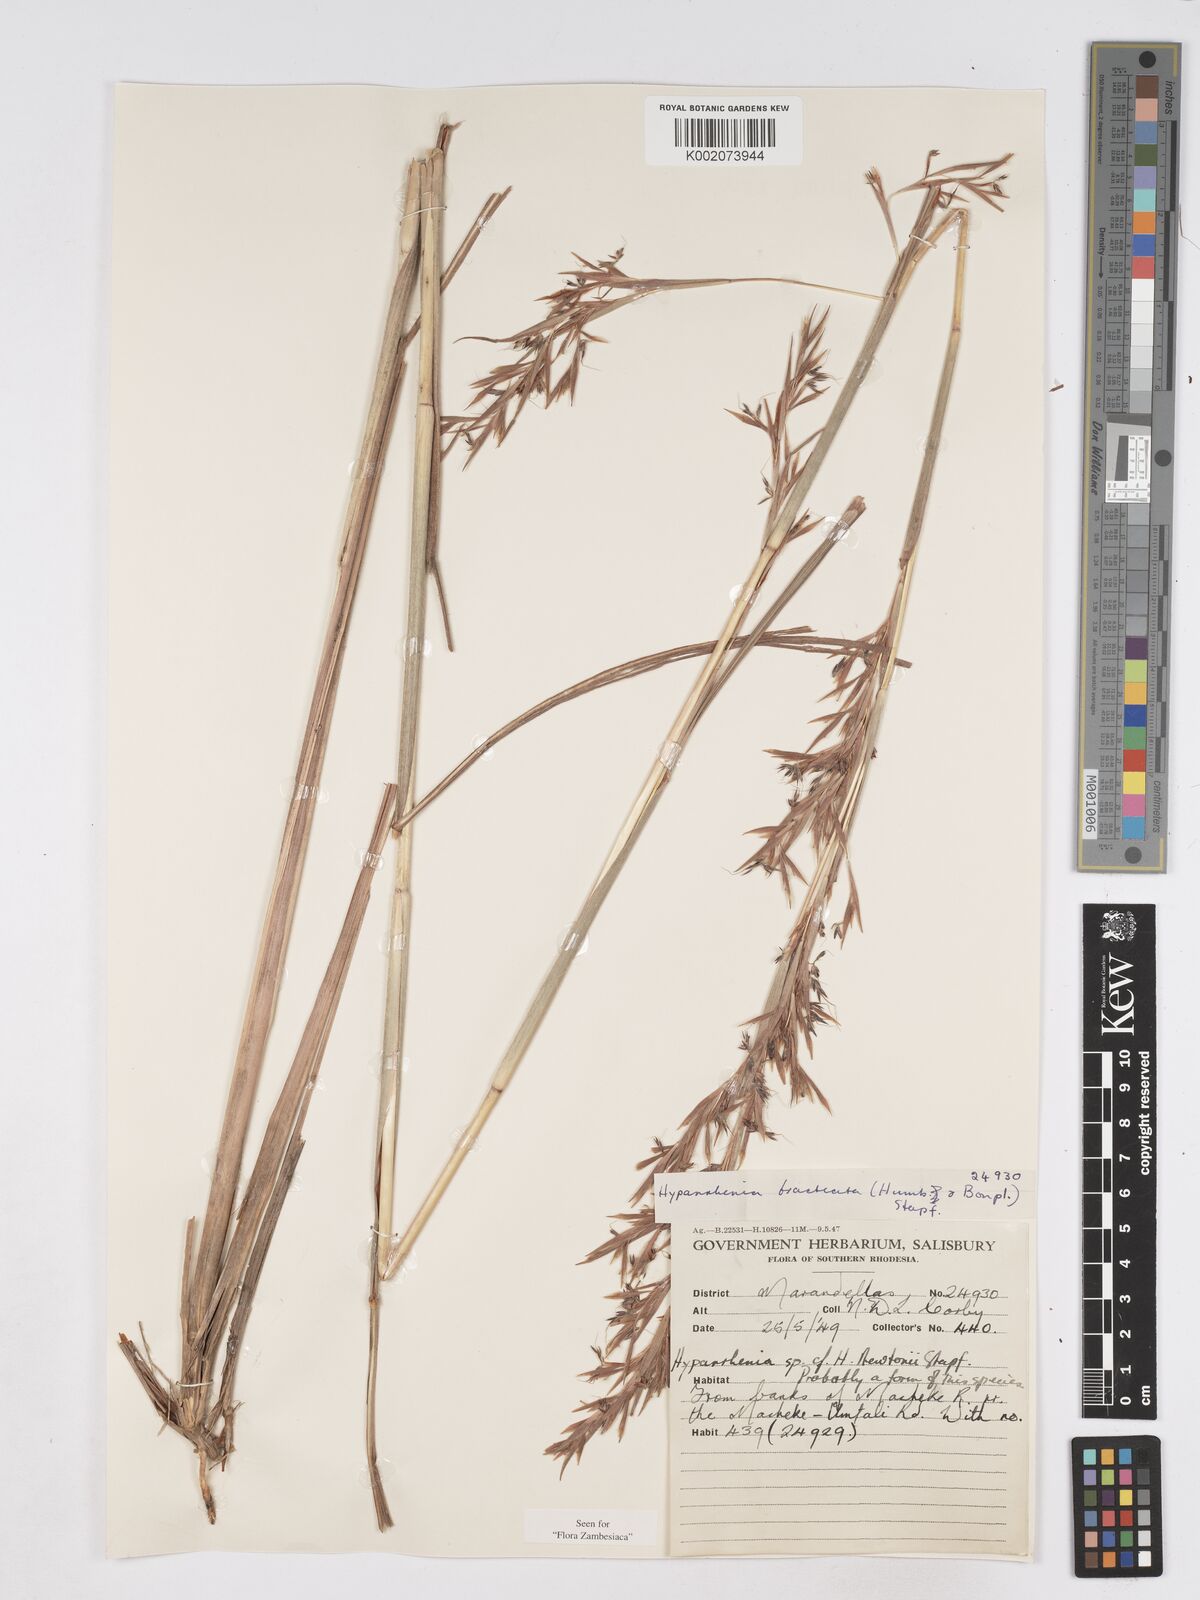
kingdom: Plantae
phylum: Tracheophyta
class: Liliopsida
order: Poales
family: Poaceae
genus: Hyparrhenia
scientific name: Hyparrhenia bracteata
